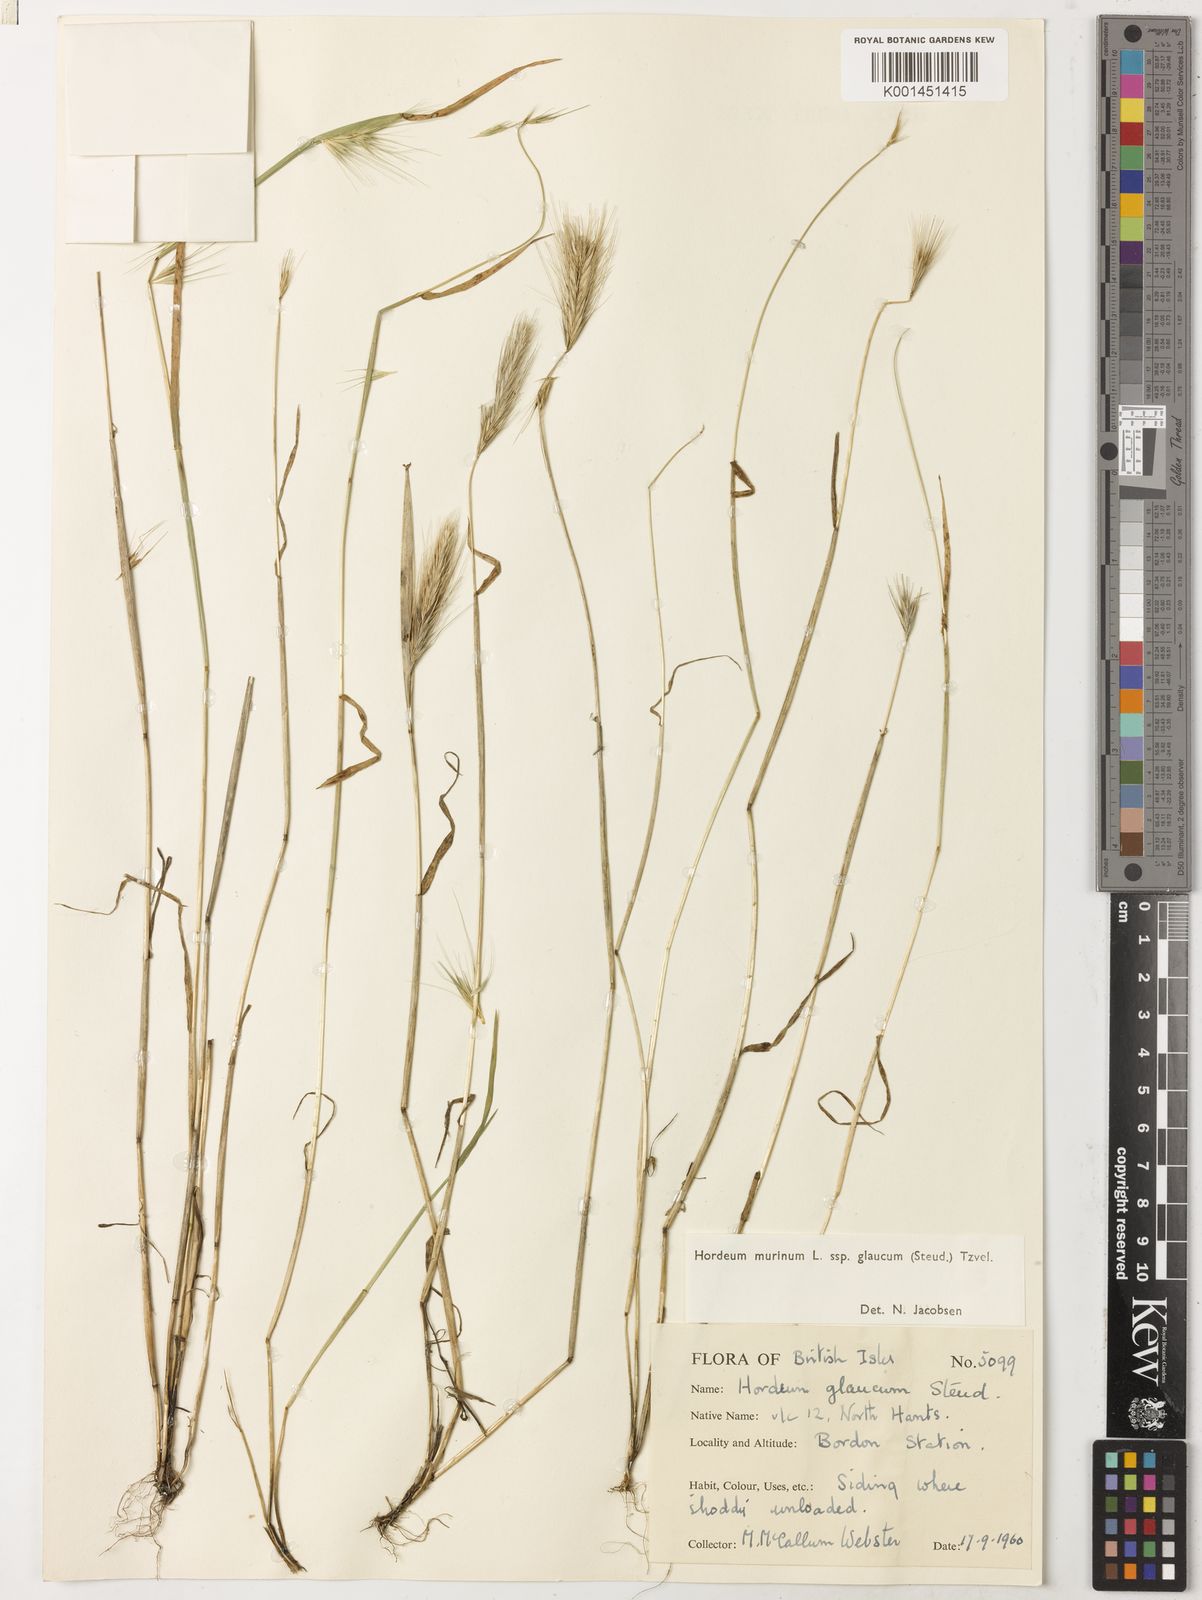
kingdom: Plantae
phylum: Tracheophyta
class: Liliopsida
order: Poales
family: Poaceae
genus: Hordeum
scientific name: Hordeum murinum
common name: Wall barley
